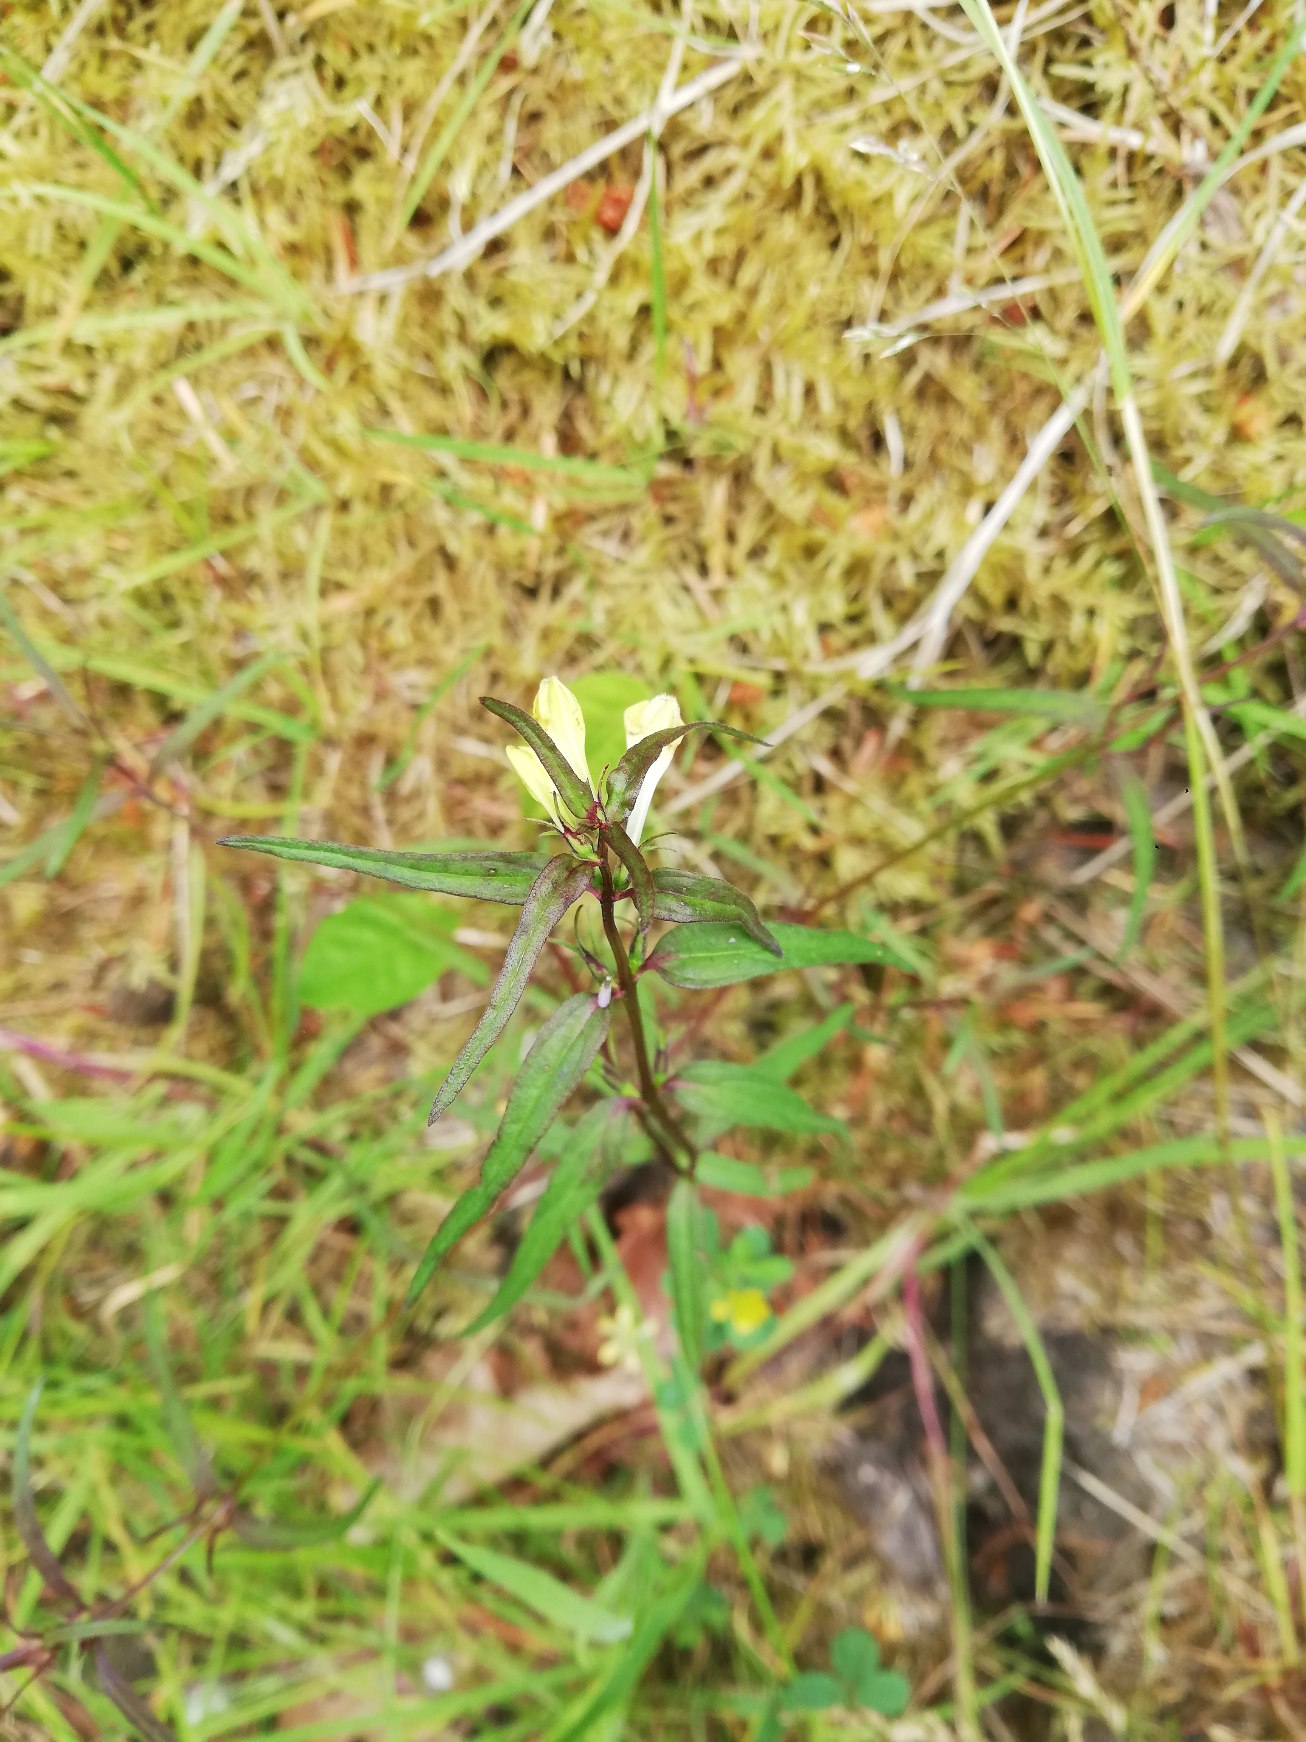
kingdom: Plantae
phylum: Tracheophyta
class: Magnoliopsida
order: Lamiales
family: Orobanchaceae
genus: Melampyrum
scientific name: Melampyrum pratense
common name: Almindelig kohvede
